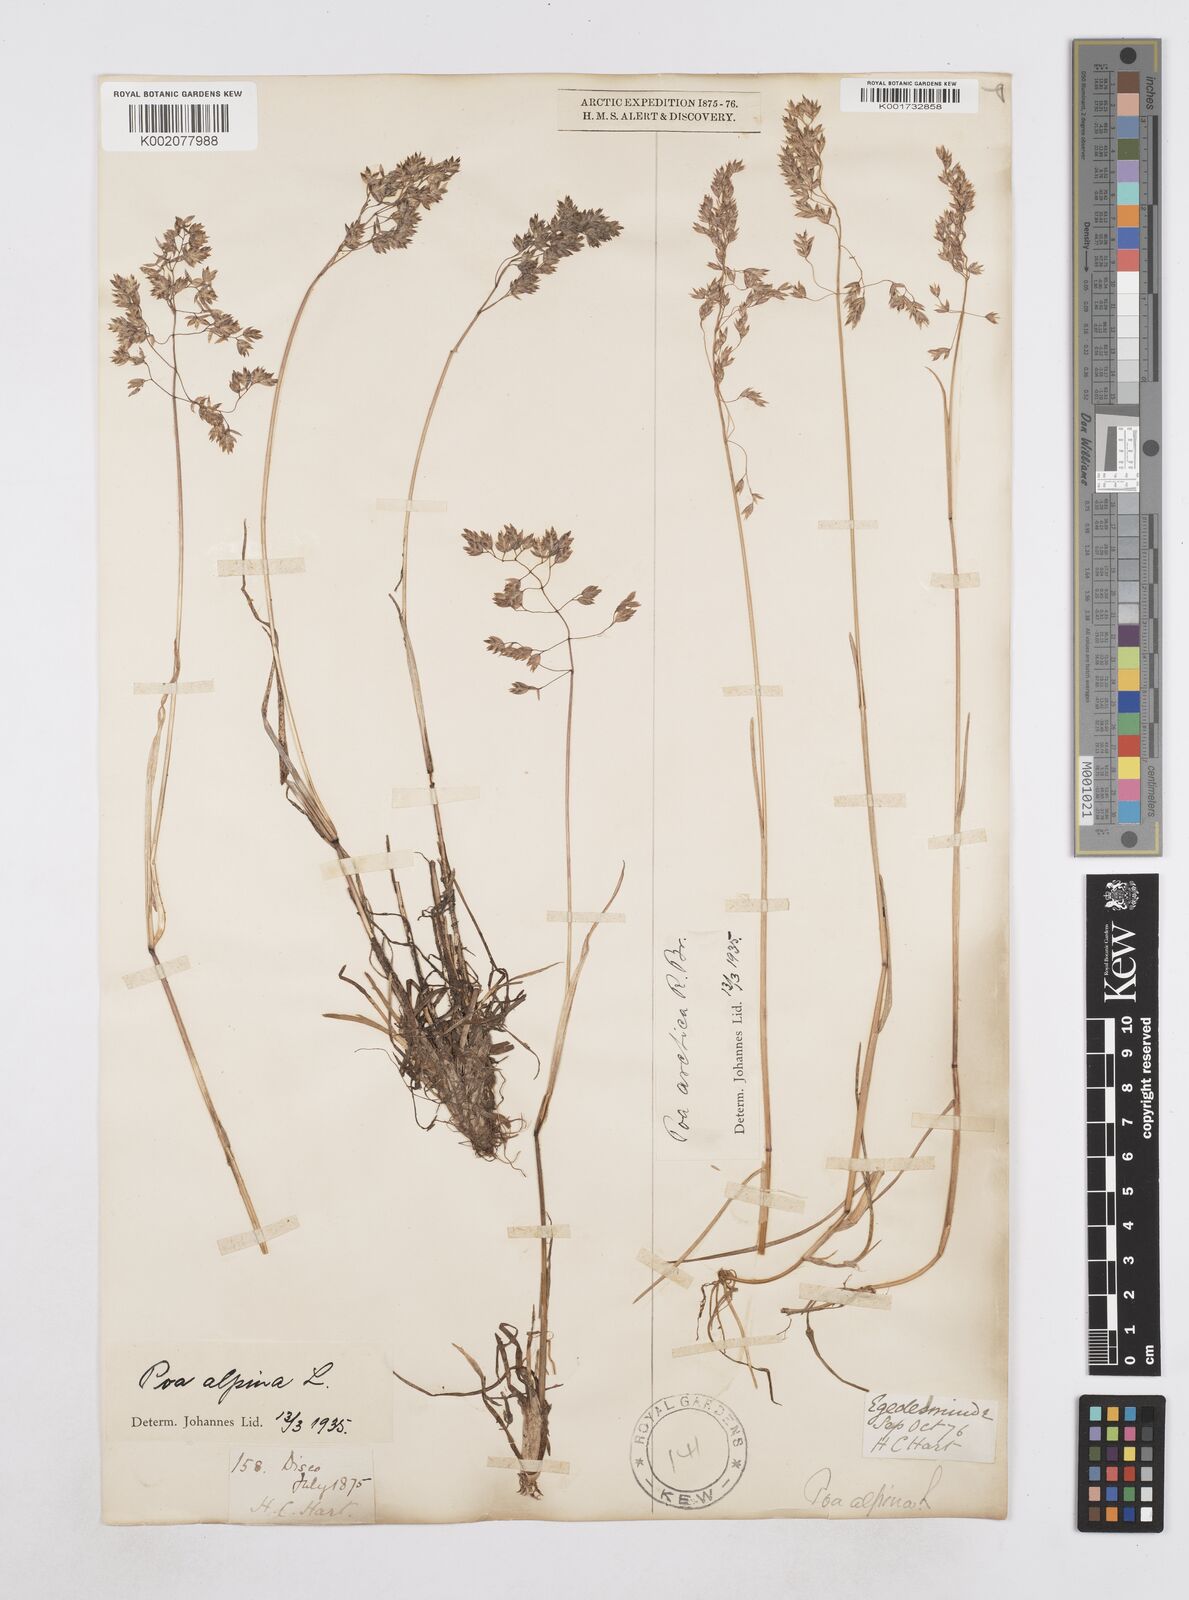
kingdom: Plantae
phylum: Tracheophyta
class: Liliopsida
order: Poales
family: Poaceae
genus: Poa
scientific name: Poa arctica
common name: Arctic bluegrass
